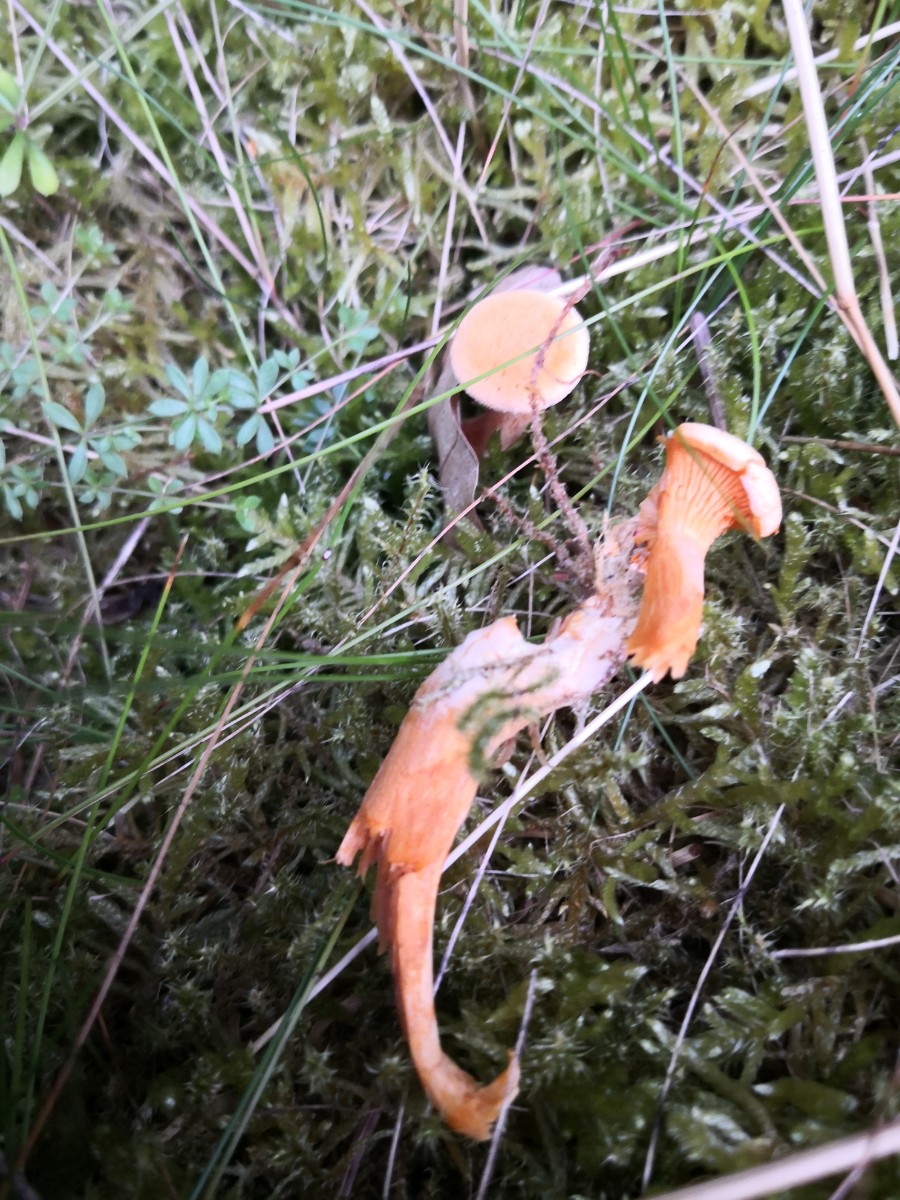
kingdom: Fungi
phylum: Basidiomycota
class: Agaricomycetes
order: Boletales
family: Hygrophoropsidaceae
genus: Hygrophoropsis
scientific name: Hygrophoropsis aurantiaca
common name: almindelig orangekantarel
